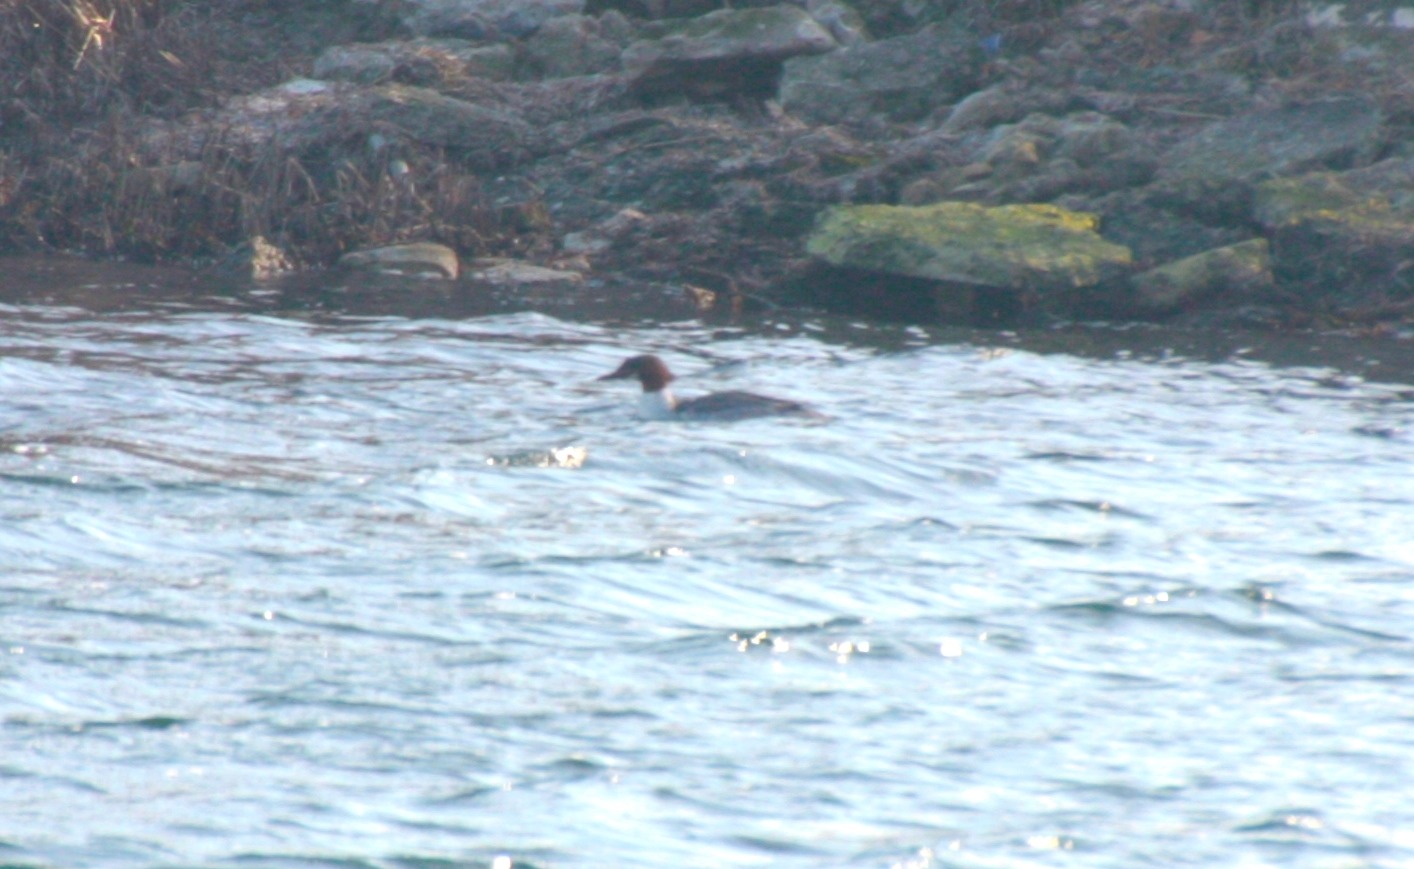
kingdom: Animalia
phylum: Chordata
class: Aves
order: Anseriformes
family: Anatidae
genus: Mergus
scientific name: Mergus merganser
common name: Stor skallesluger
